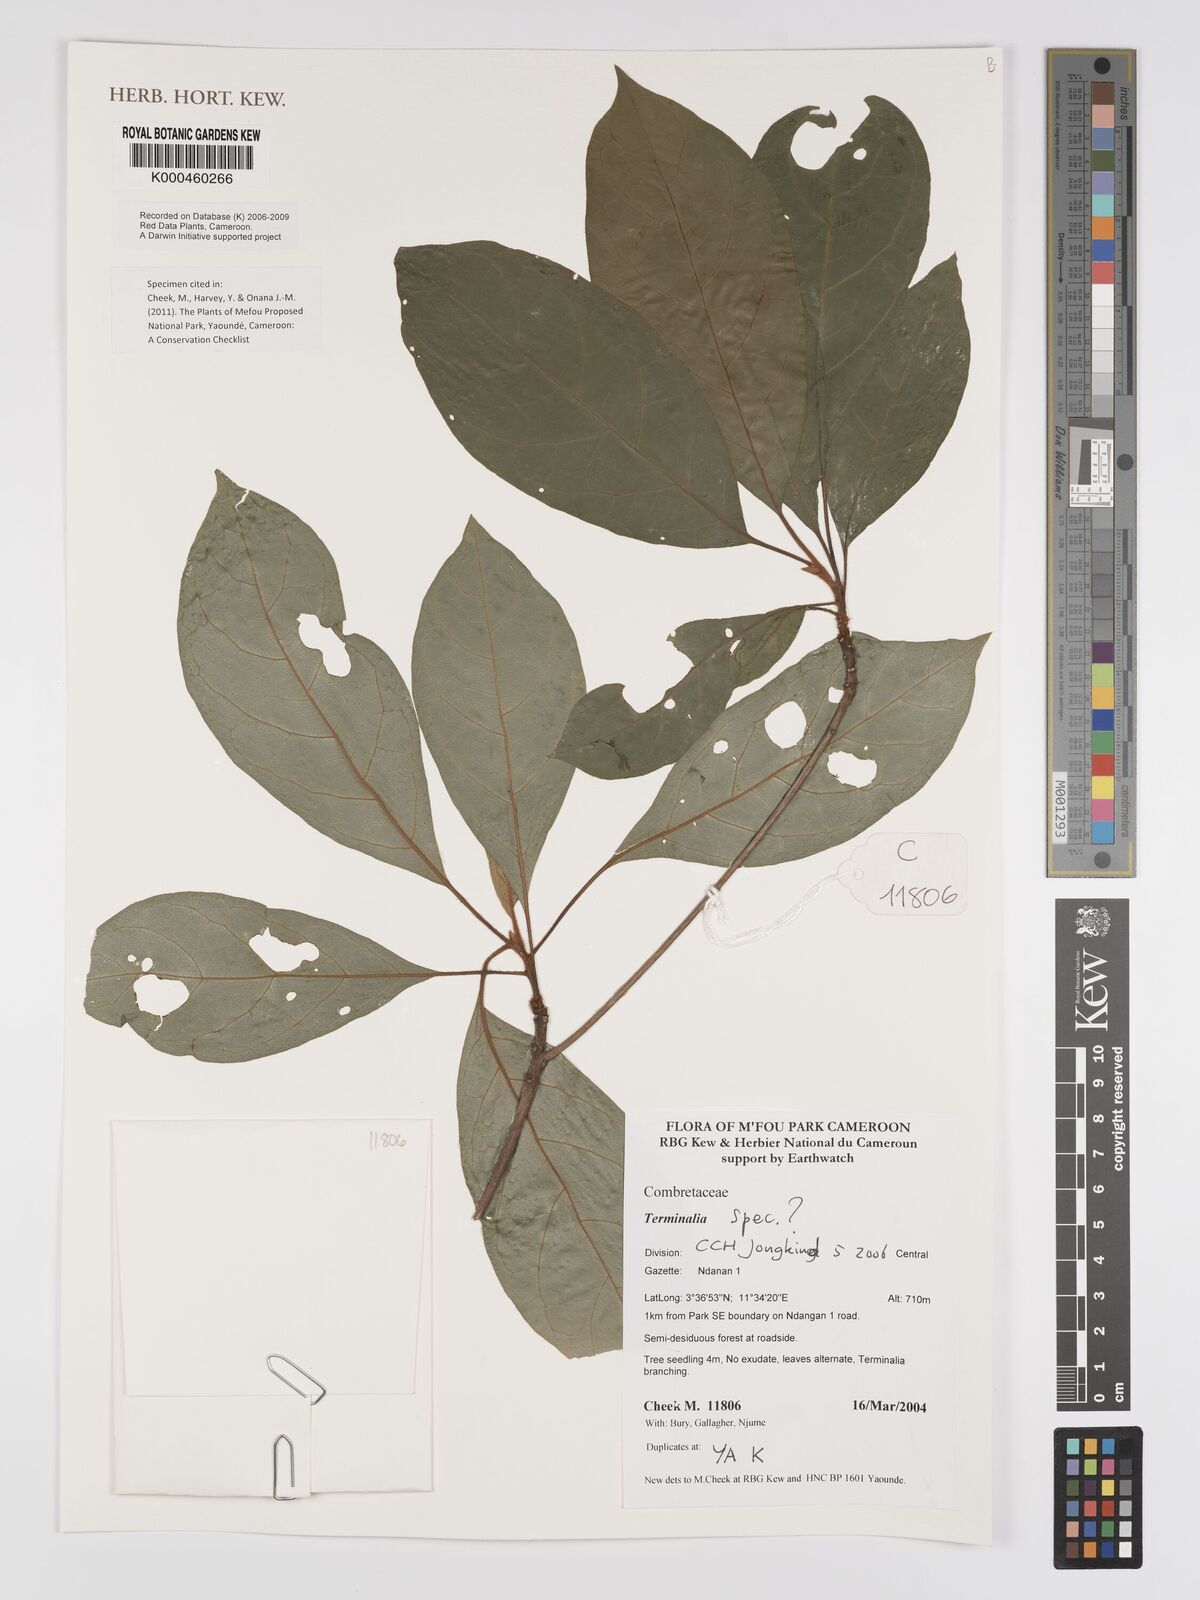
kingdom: Plantae
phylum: Tracheophyta
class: Magnoliopsida
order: Myrtales
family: Combretaceae
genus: Terminalia
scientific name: Terminalia
